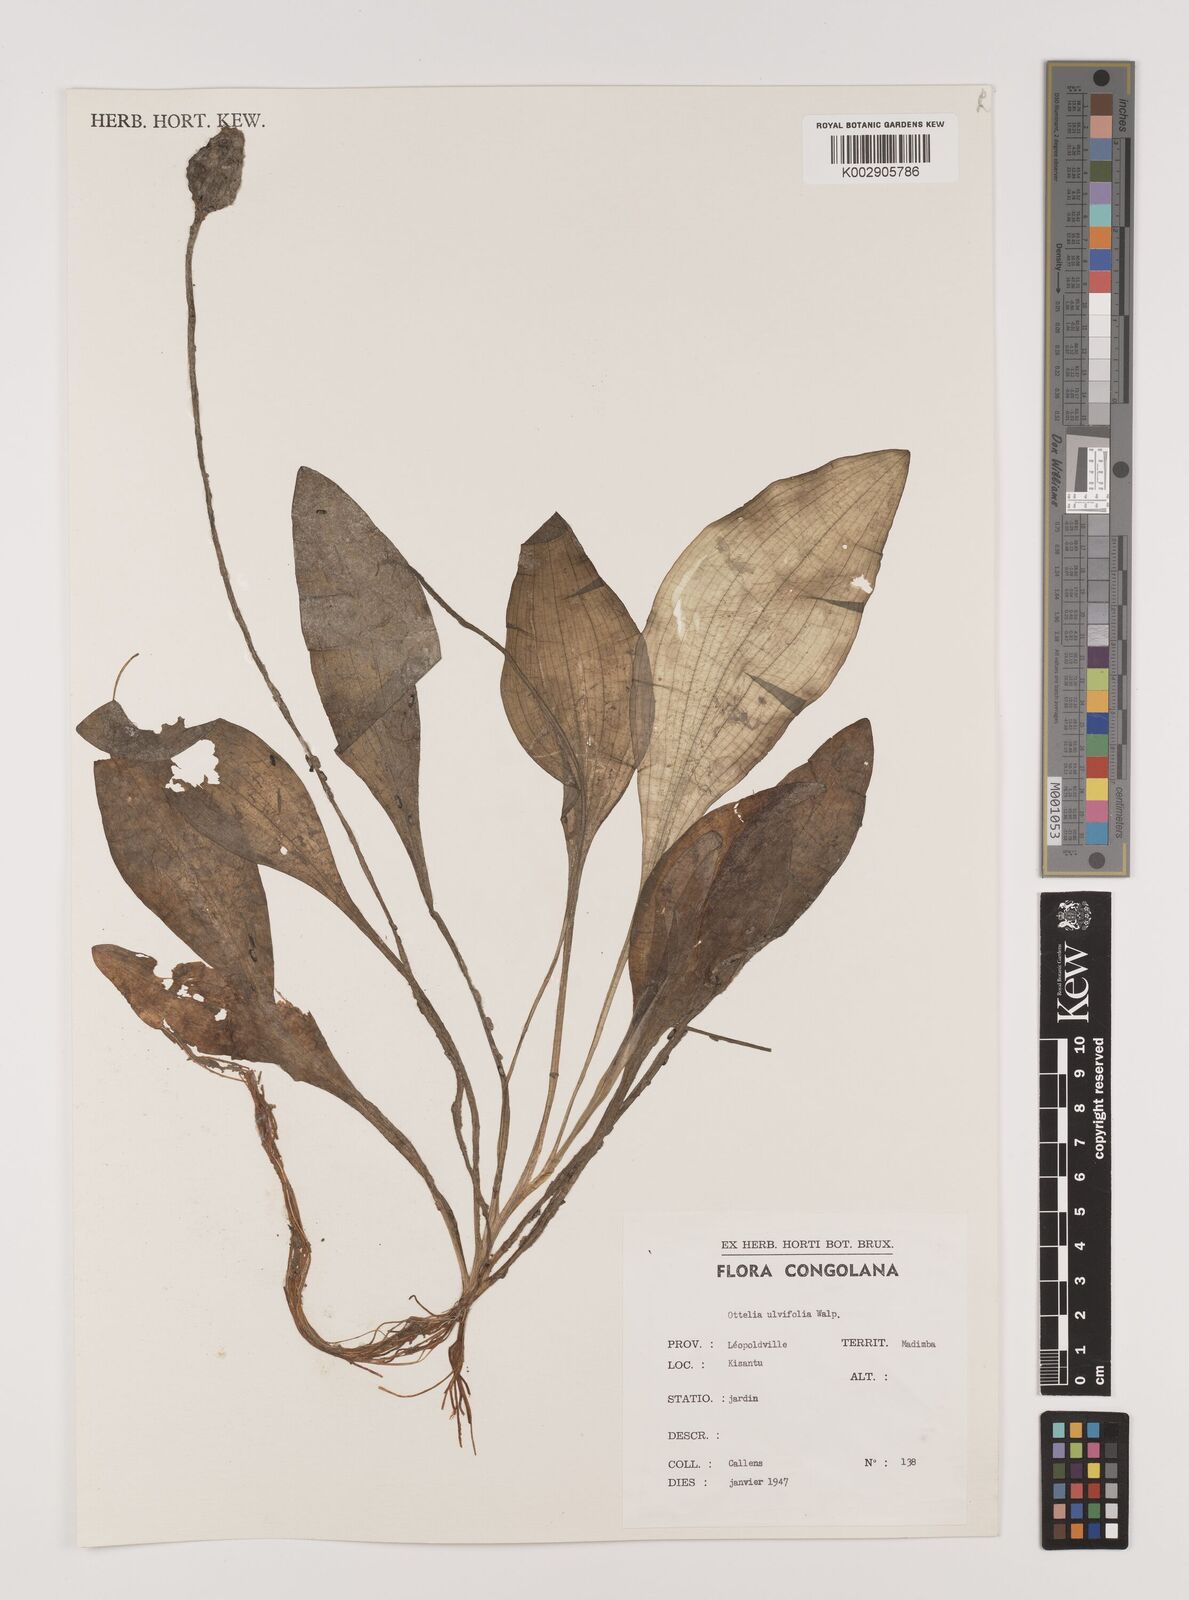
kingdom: Plantae
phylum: Tracheophyta
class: Liliopsida
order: Alismatales
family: Hydrocharitaceae
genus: Ottelia
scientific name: Ottelia ulvifolia
